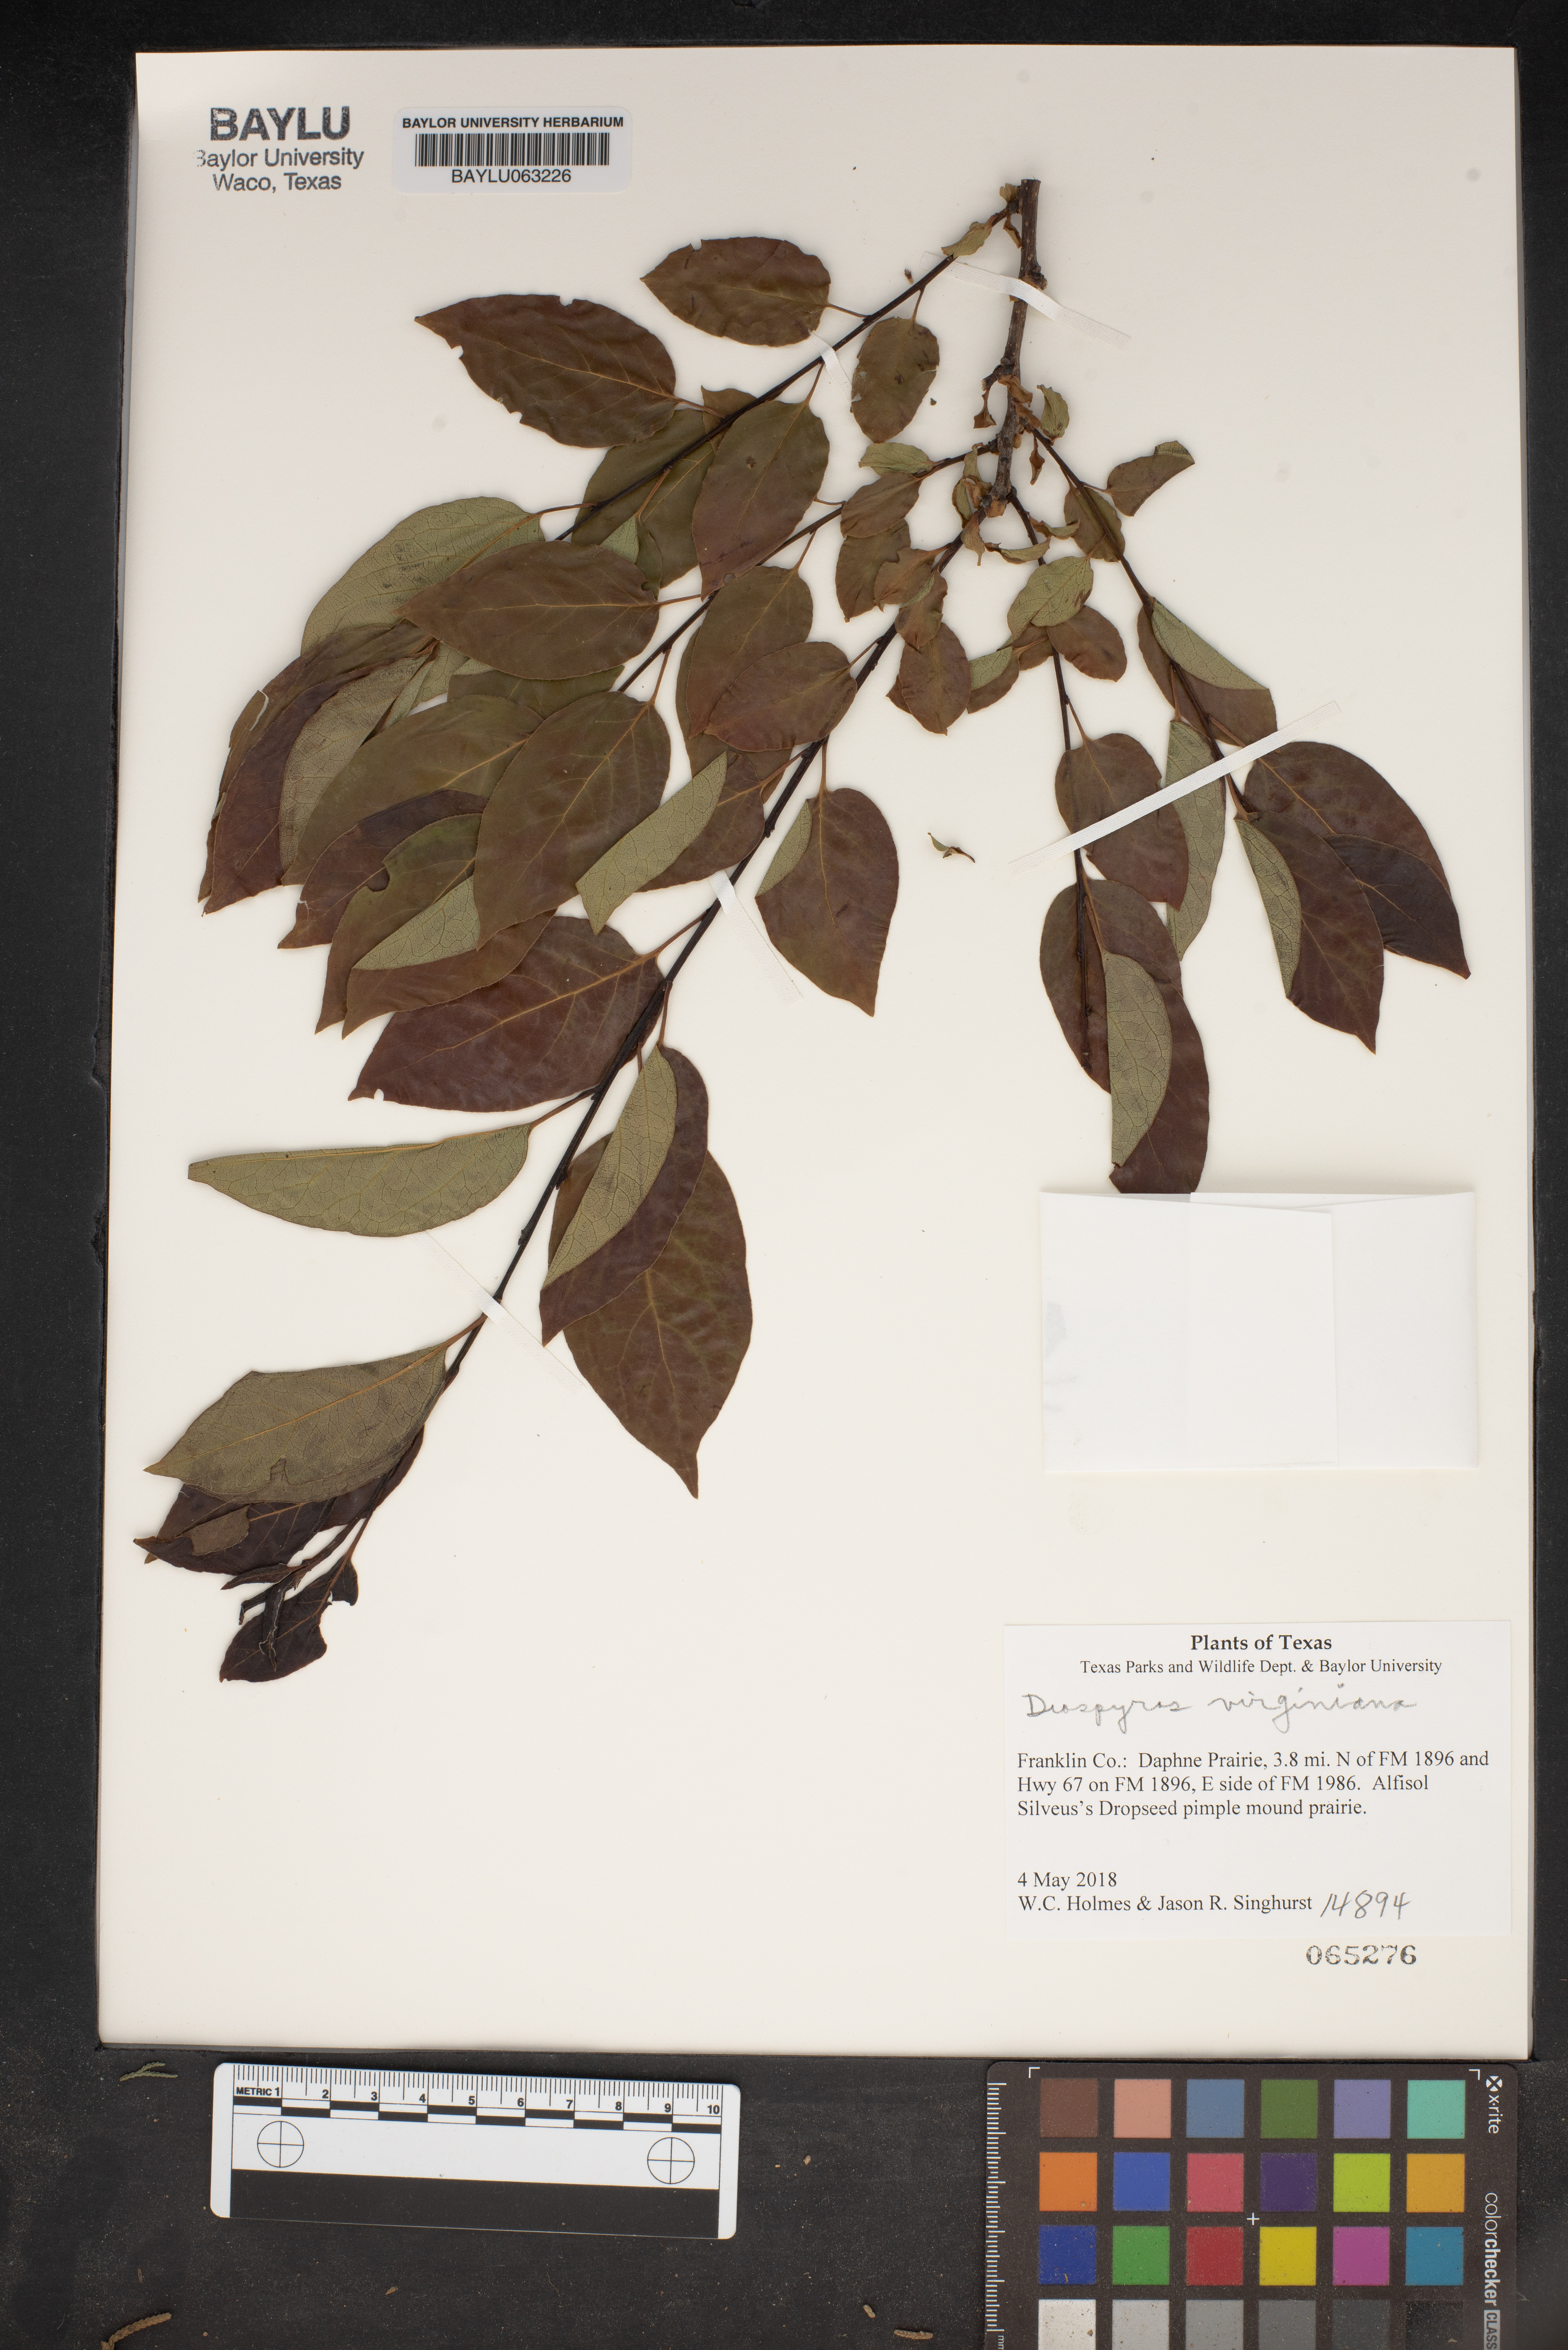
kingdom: Plantae
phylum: Tracheophyta
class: Magnoliopsida
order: Ericales
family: Ebenaceae
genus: Diospyros
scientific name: Diospyros virginiana
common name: Persimmon
